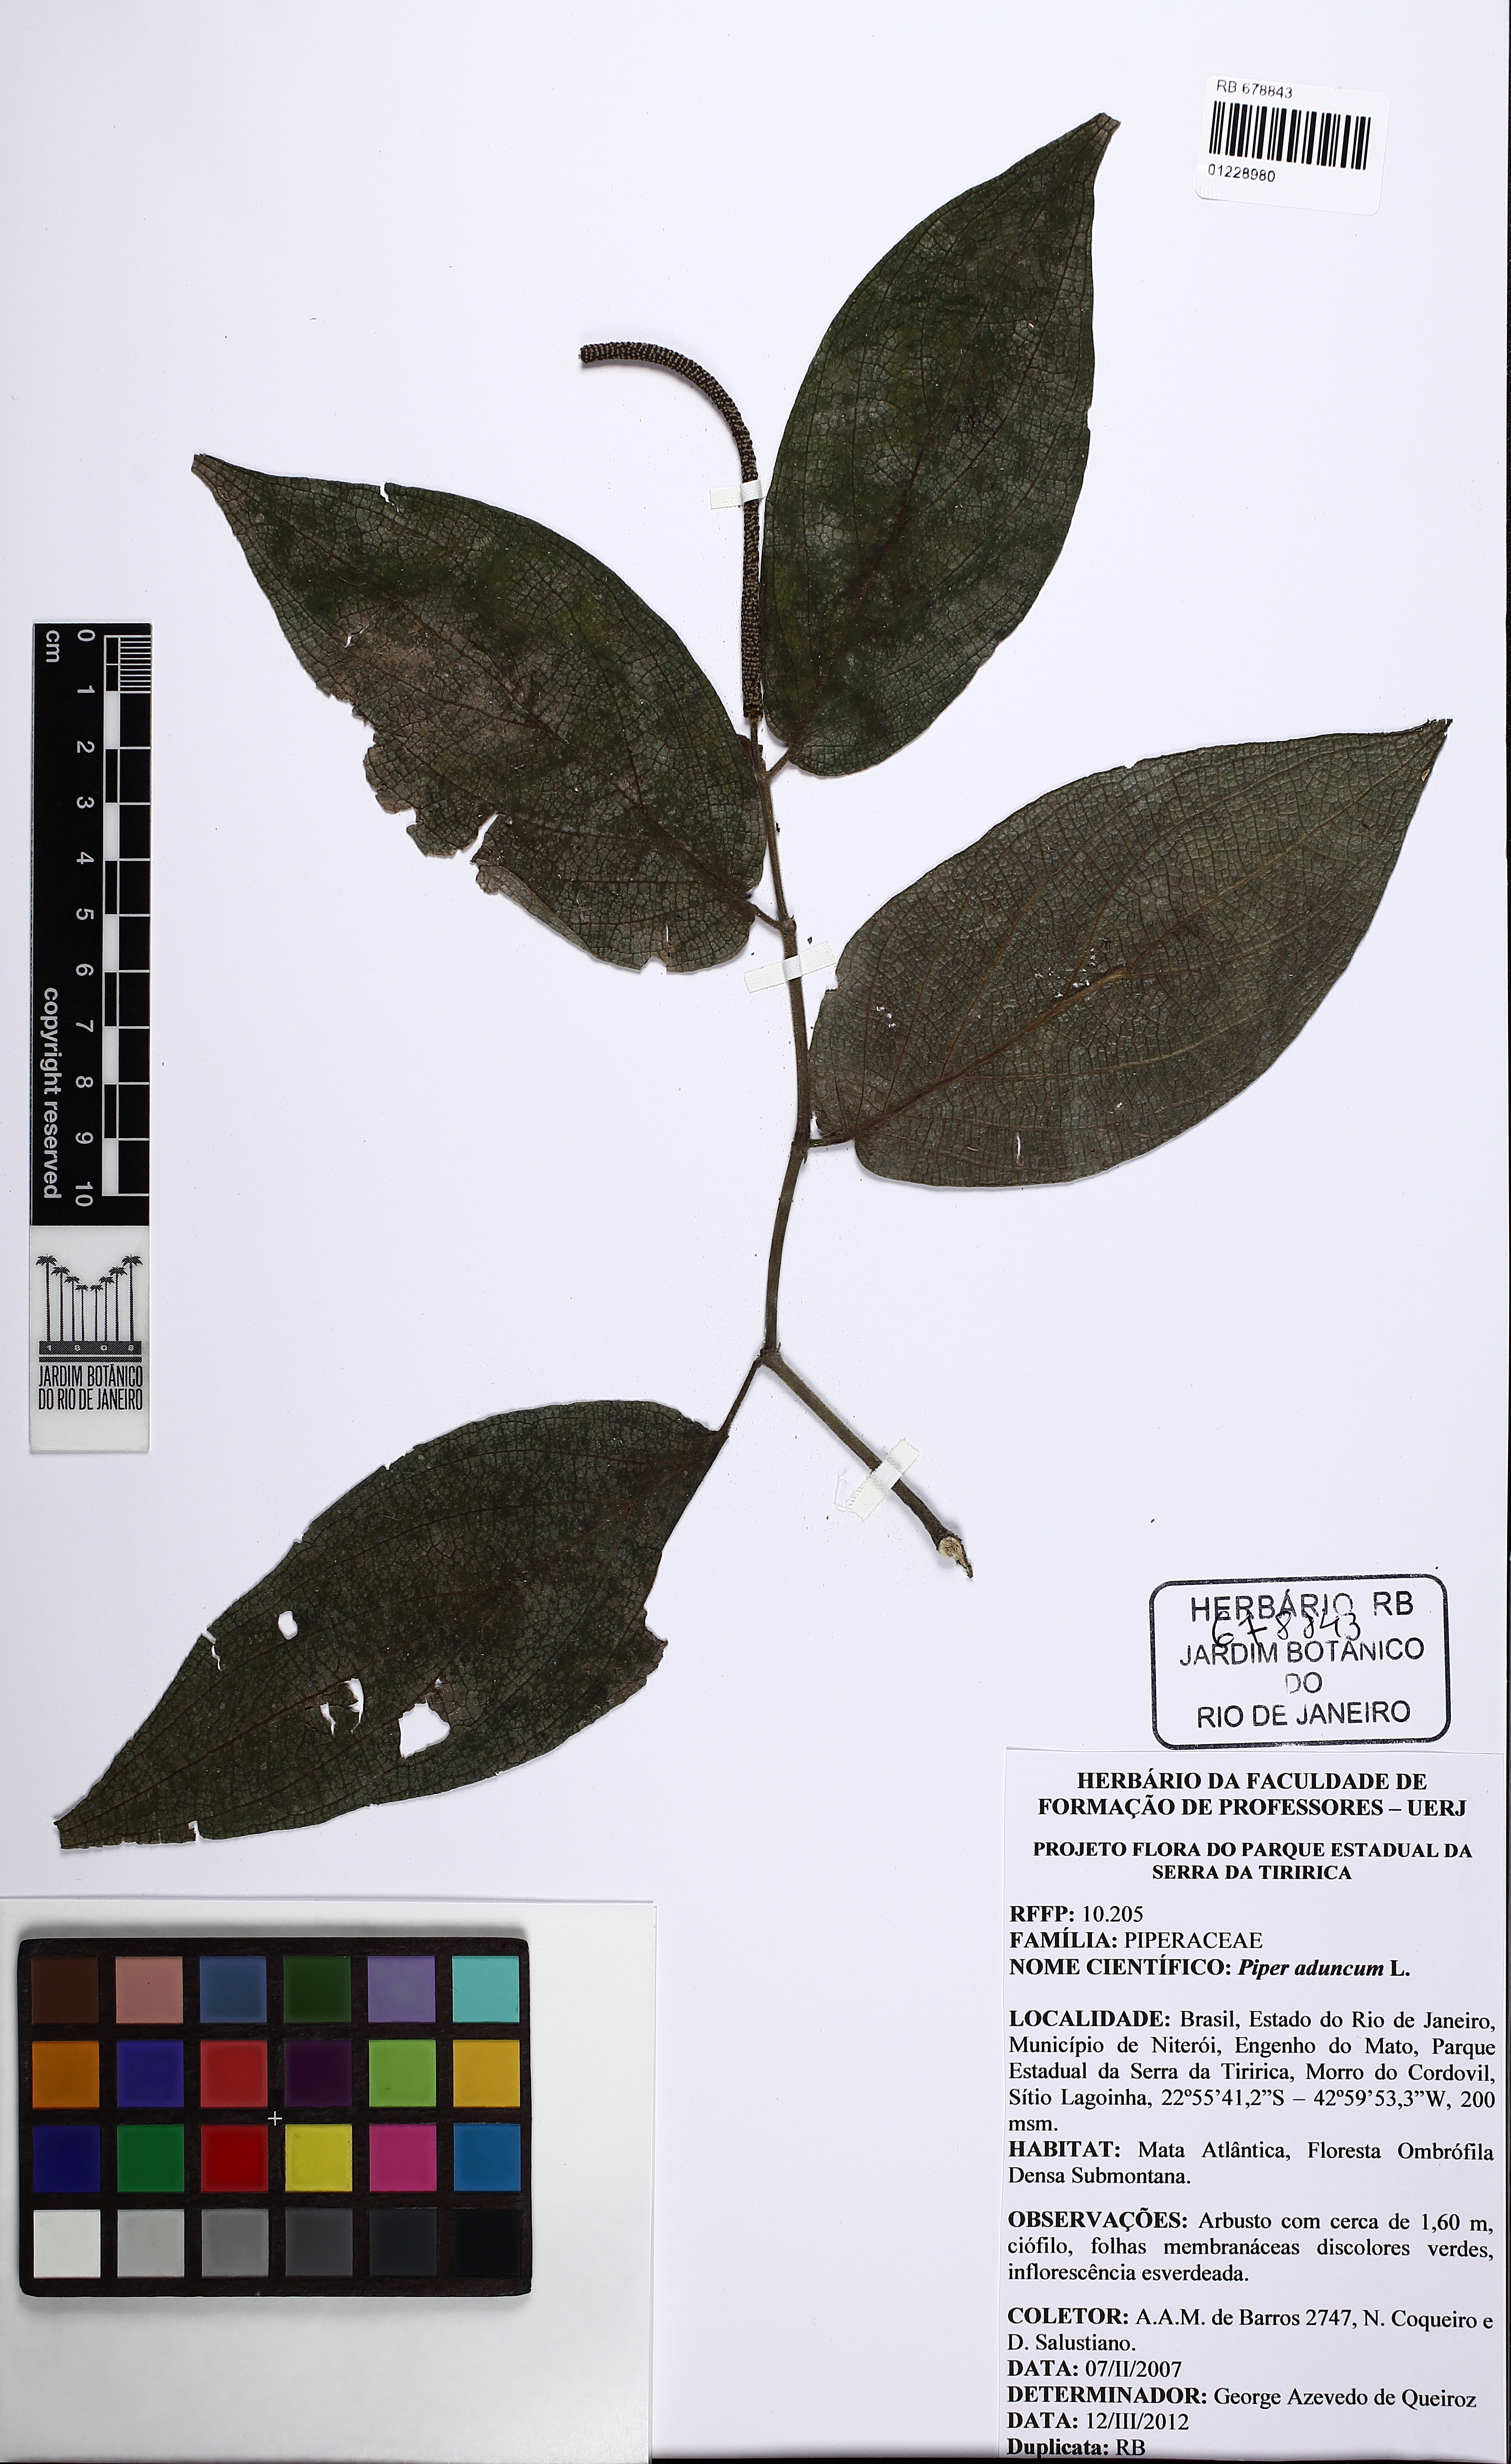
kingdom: Plantae
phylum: Tracheophyta
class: Magnoliopsida
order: Piperales
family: Piperaceae
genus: Piper
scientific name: Piper aduncum
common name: Spiked pepper
